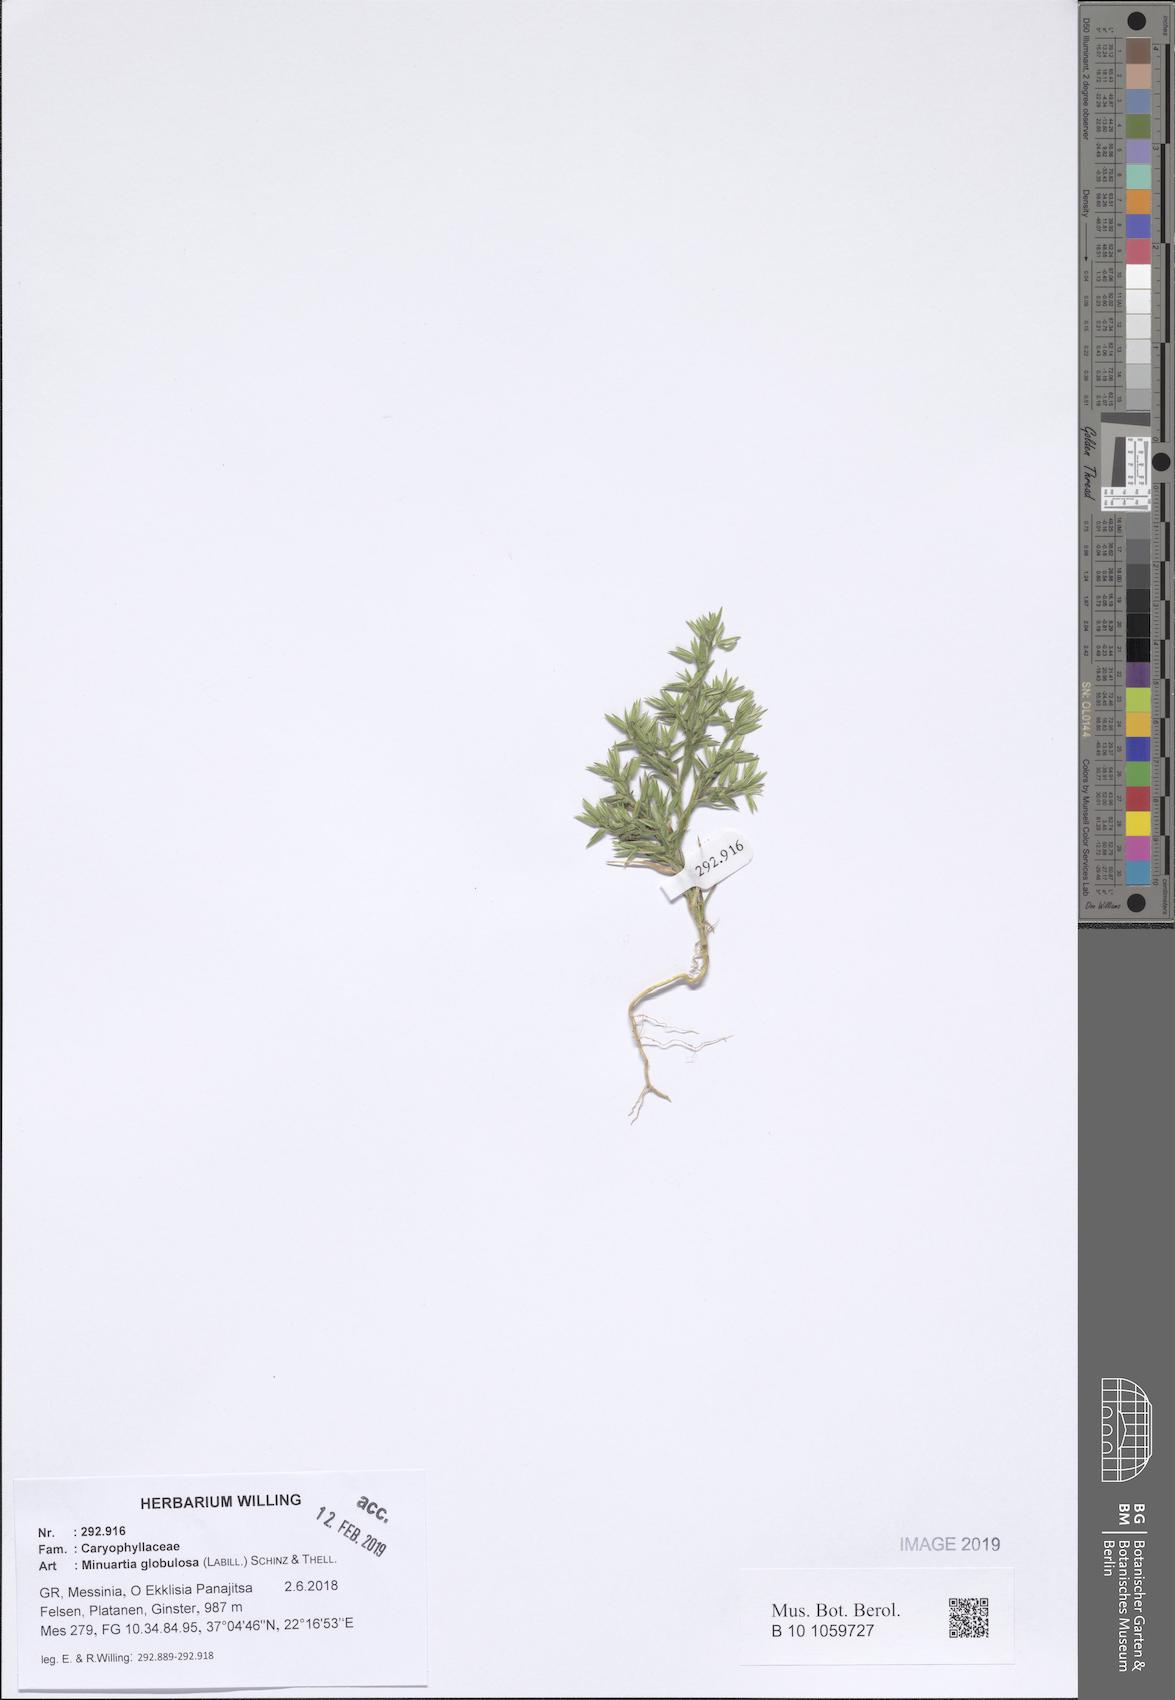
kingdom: Plantae
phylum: Tracheophyta
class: Magnoliopsida
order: Caryophyllales
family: Caryophyllaceae
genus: Minuartia
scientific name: Minuartia globulosa
